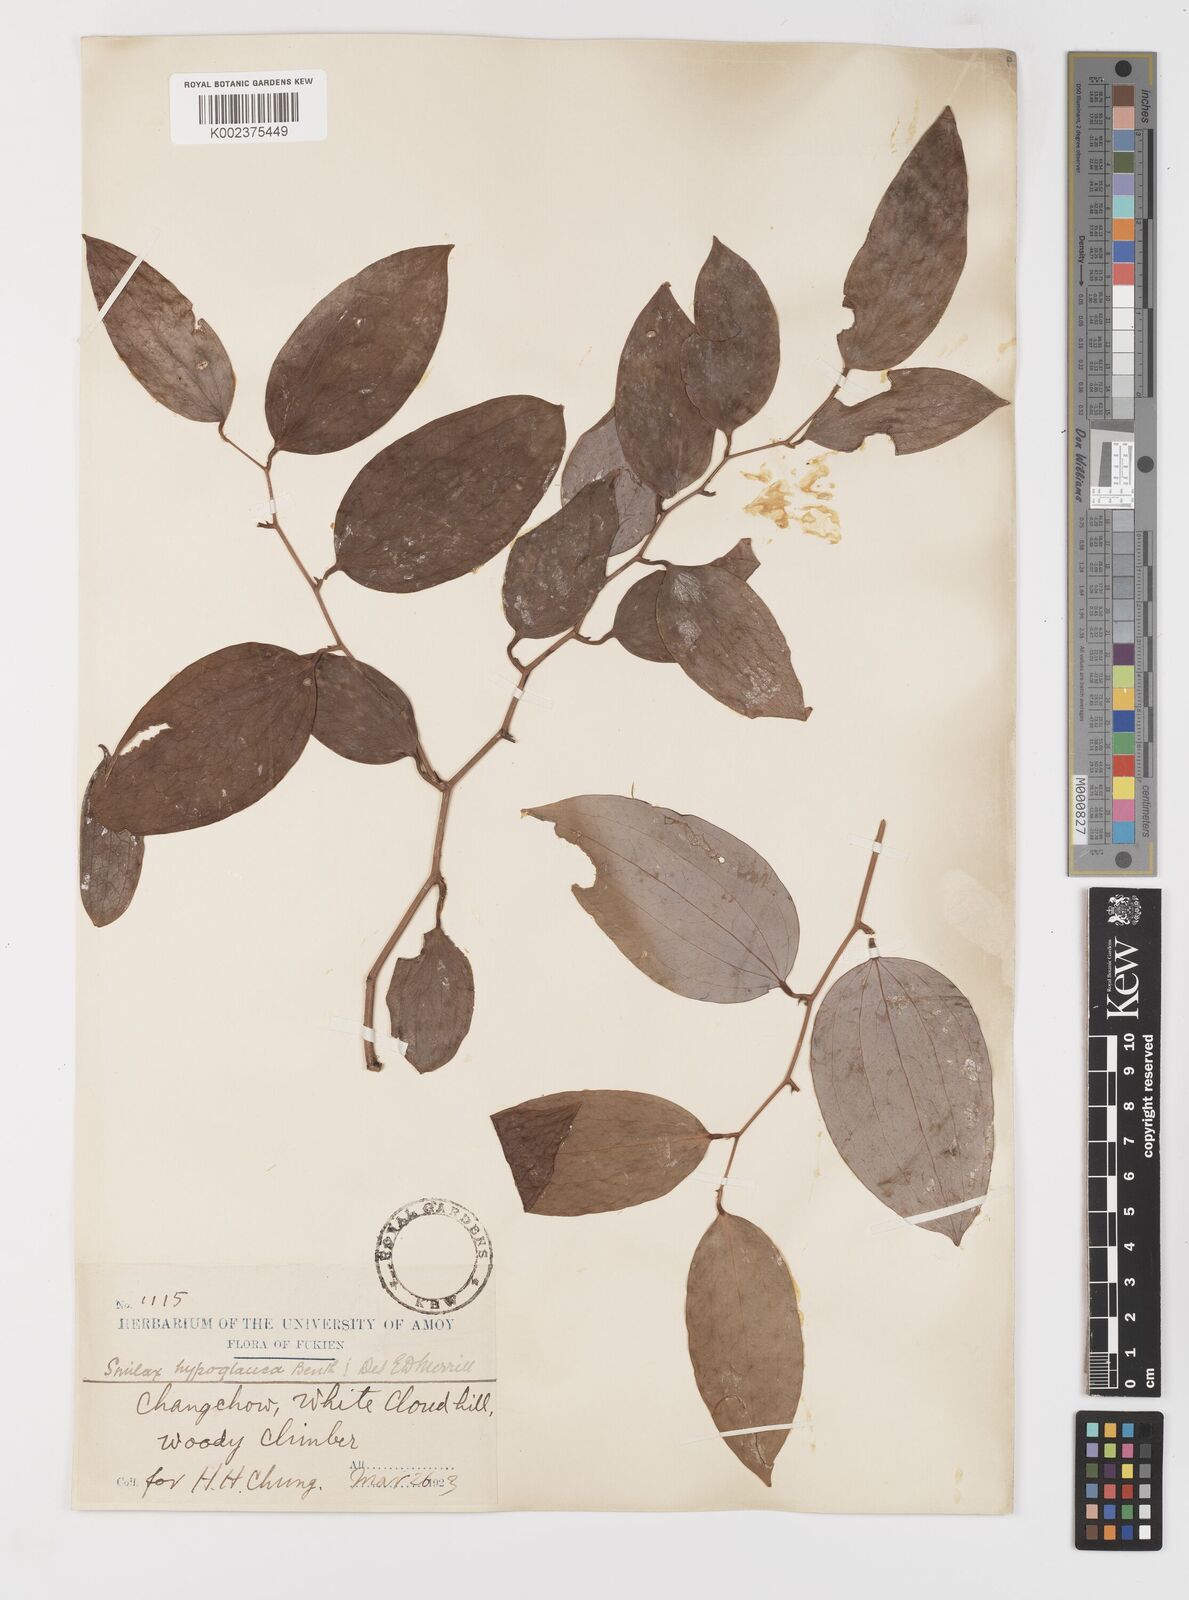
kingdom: Plantae
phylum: Tracheophyta
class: Liliopsida
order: Liliales
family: Smilacaceae
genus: Smilax
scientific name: Smilax hypoglauca
